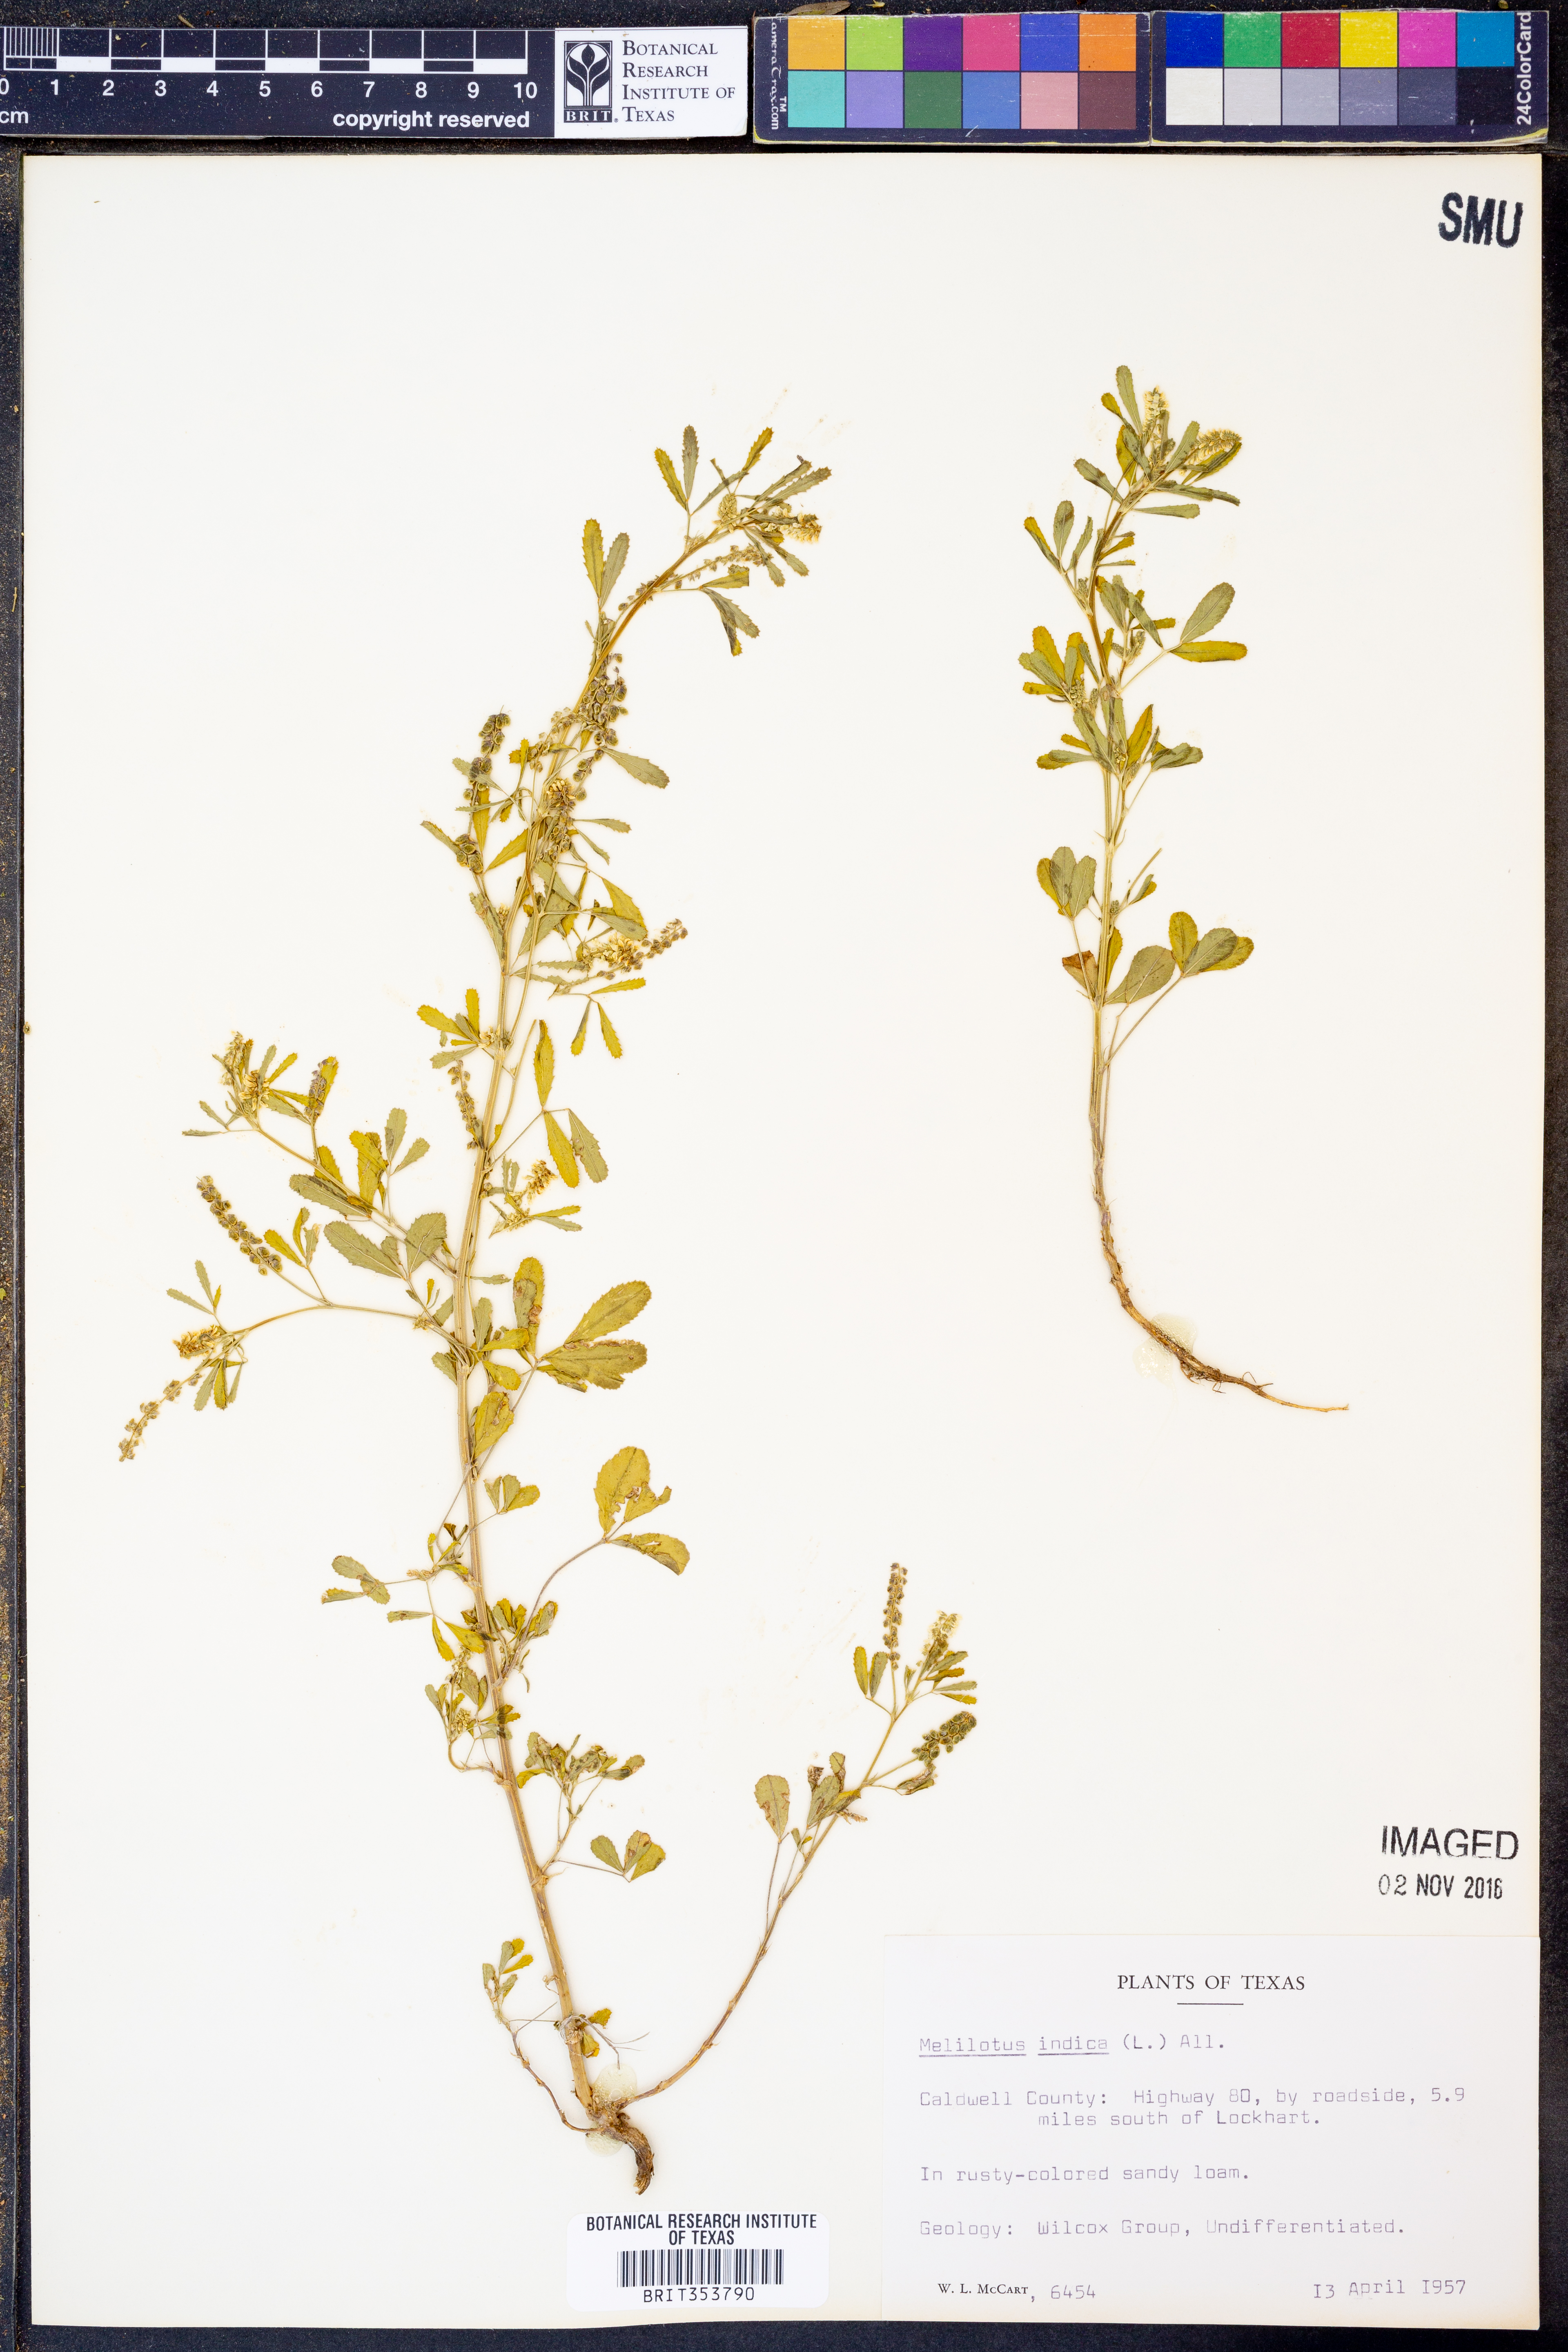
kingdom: Plantae
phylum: Tracheophyta
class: Magnoliopsida
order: Fabales
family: Fabaceae
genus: Melilotus
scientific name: Melilotus indicus
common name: Small melilot
